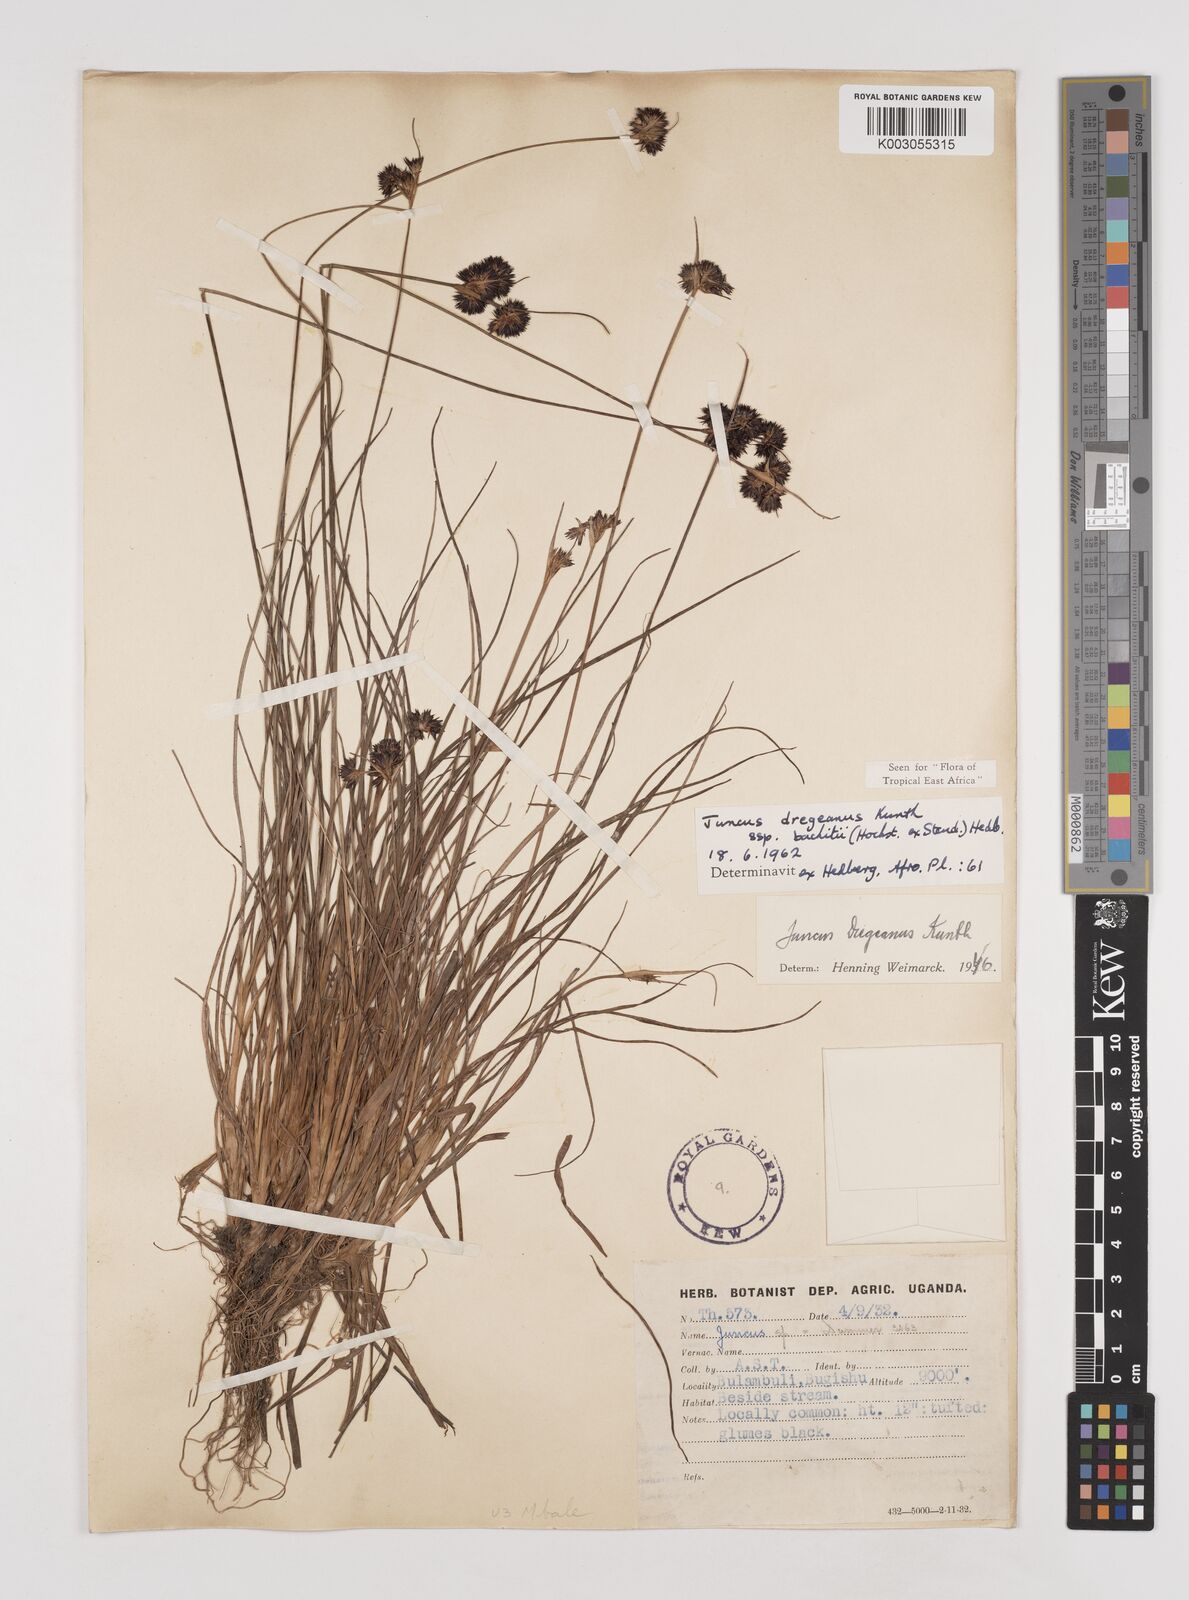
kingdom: Plantae
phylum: Tracheophyta
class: Liliopsida
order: Poales
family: Juncaceae
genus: Juncus
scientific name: Juncus dregeanus
